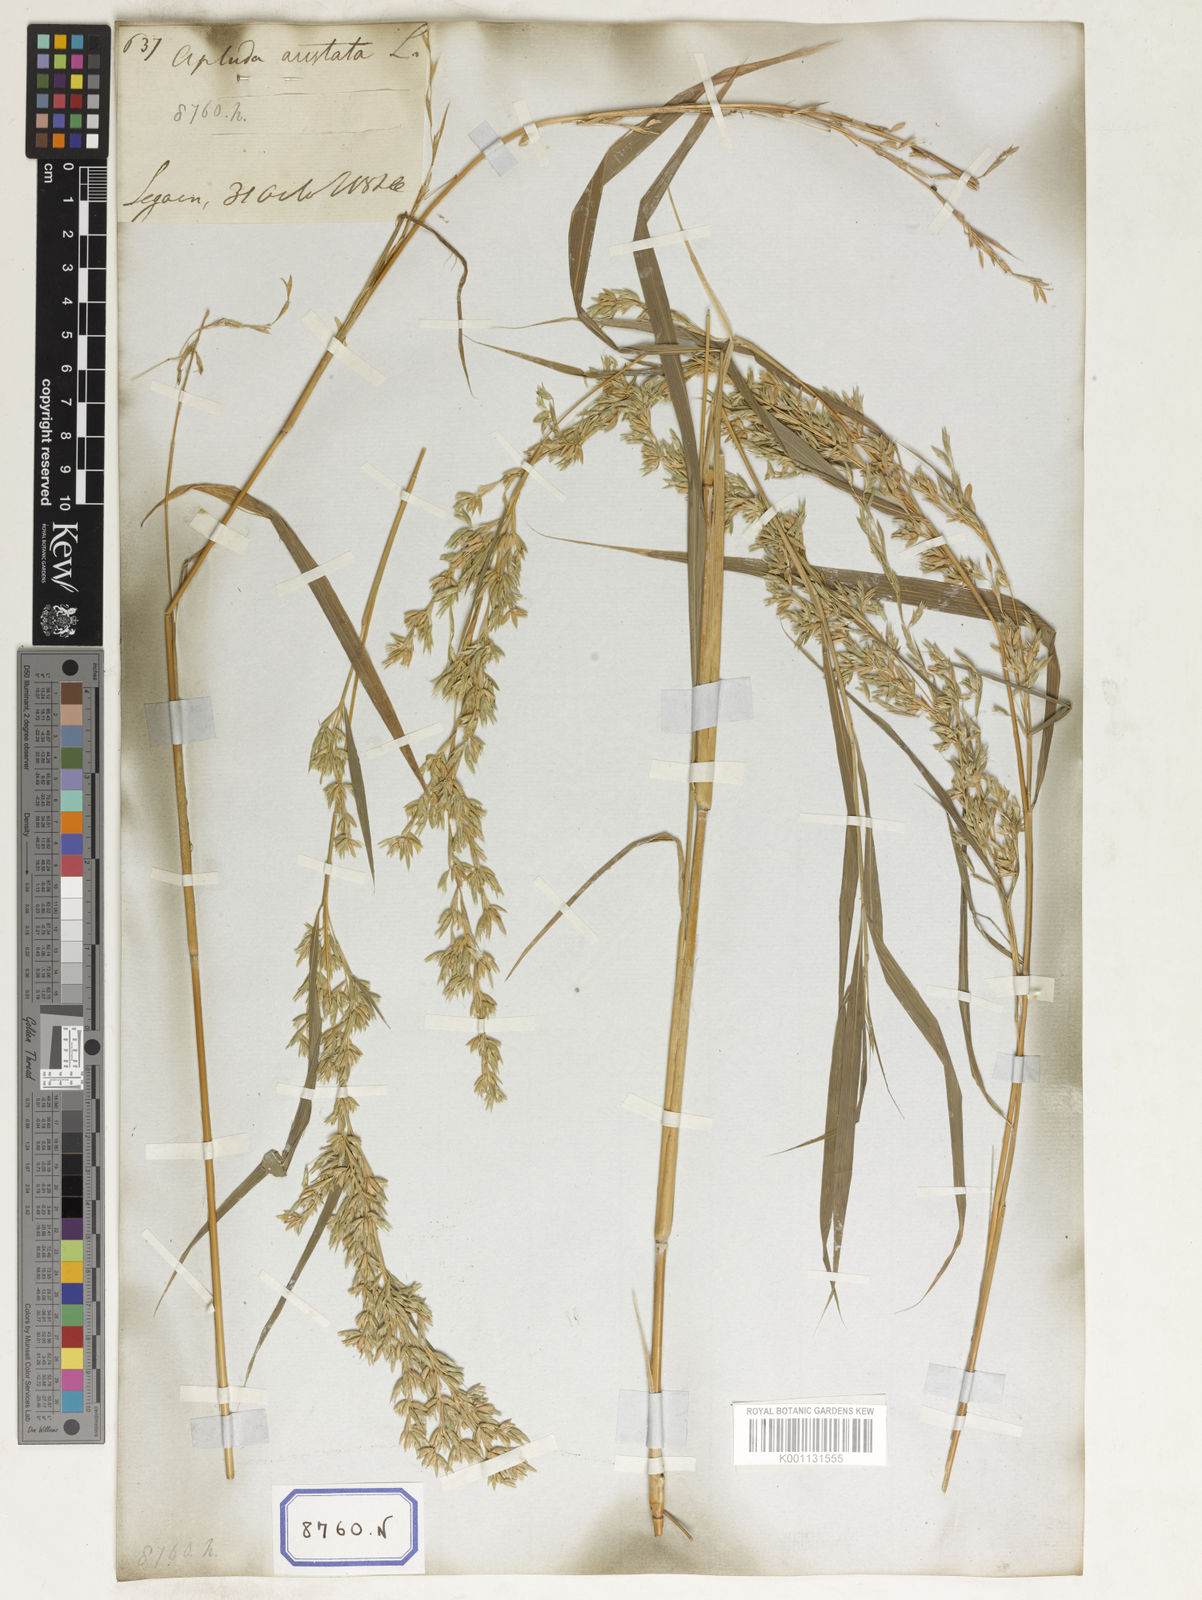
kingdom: Plantae
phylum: Tracheophyta
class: Liliopsida
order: Poales
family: Poaceae
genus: Apluda
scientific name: Apluda
